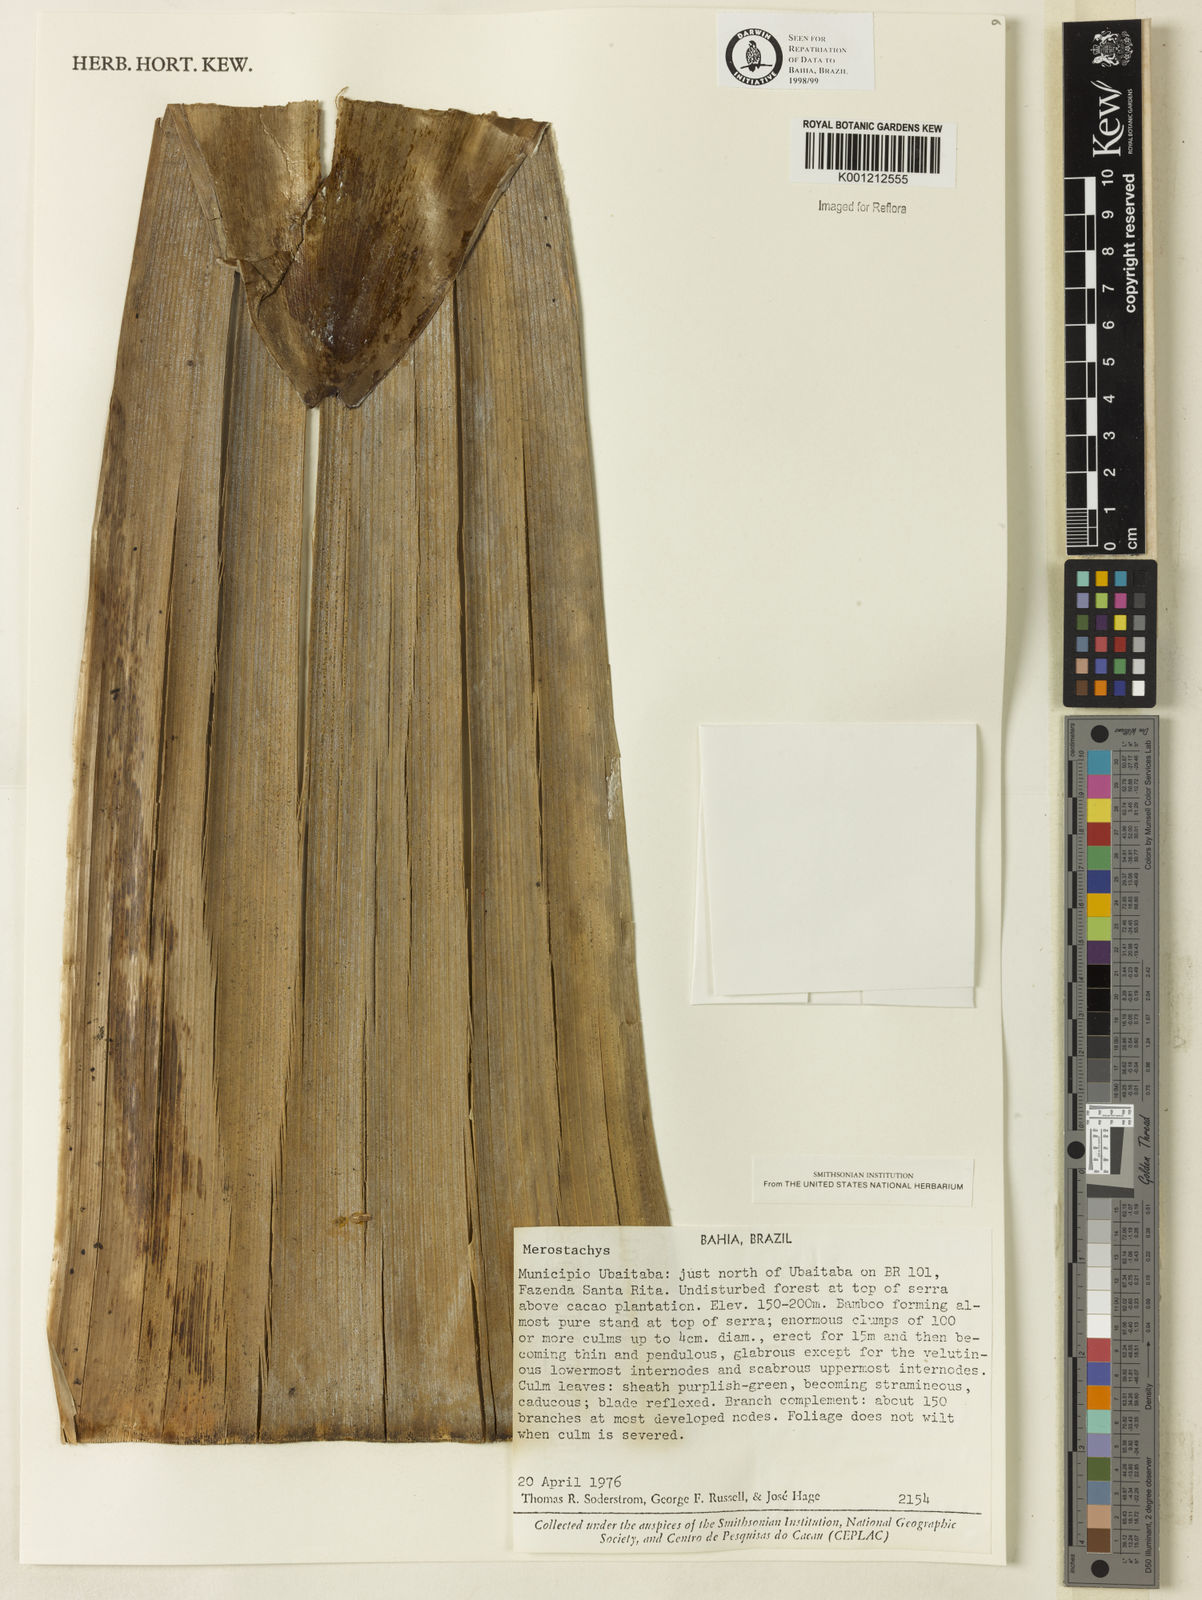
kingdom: Plantae
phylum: Tracheophyta
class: Liliopsida
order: Poales
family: Poaceae
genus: Merostachys
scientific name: Merostachys
